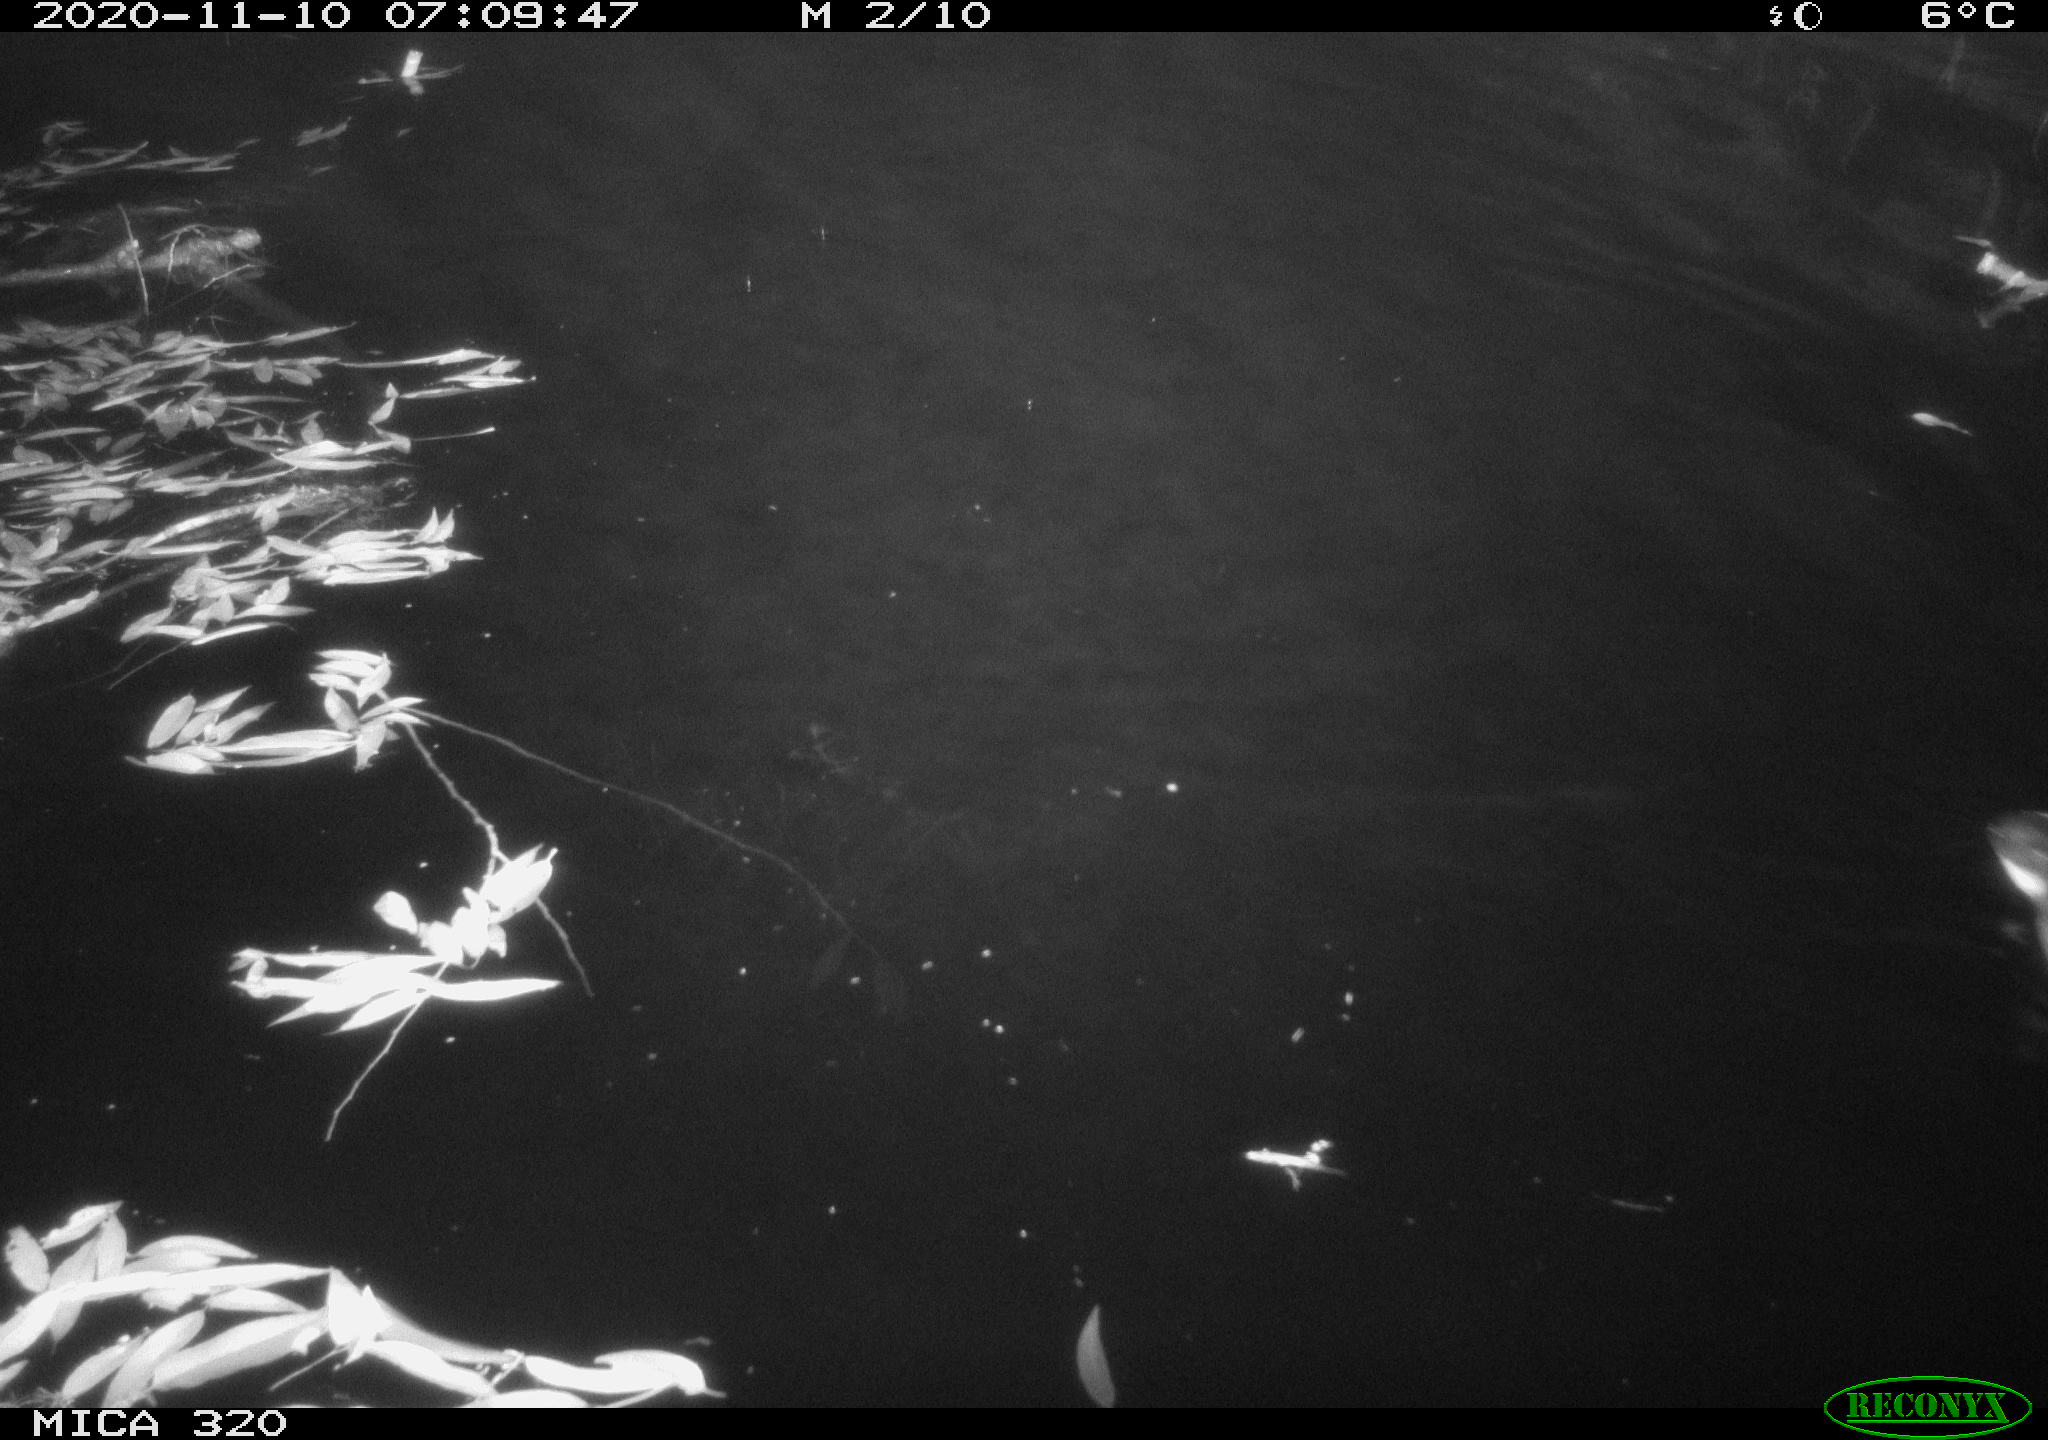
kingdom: Animalia
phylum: Chordata
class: Aves
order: Gruiformes
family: Rallidae
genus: Gallinula
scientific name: Gallinula chloropus
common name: Common moorhen
